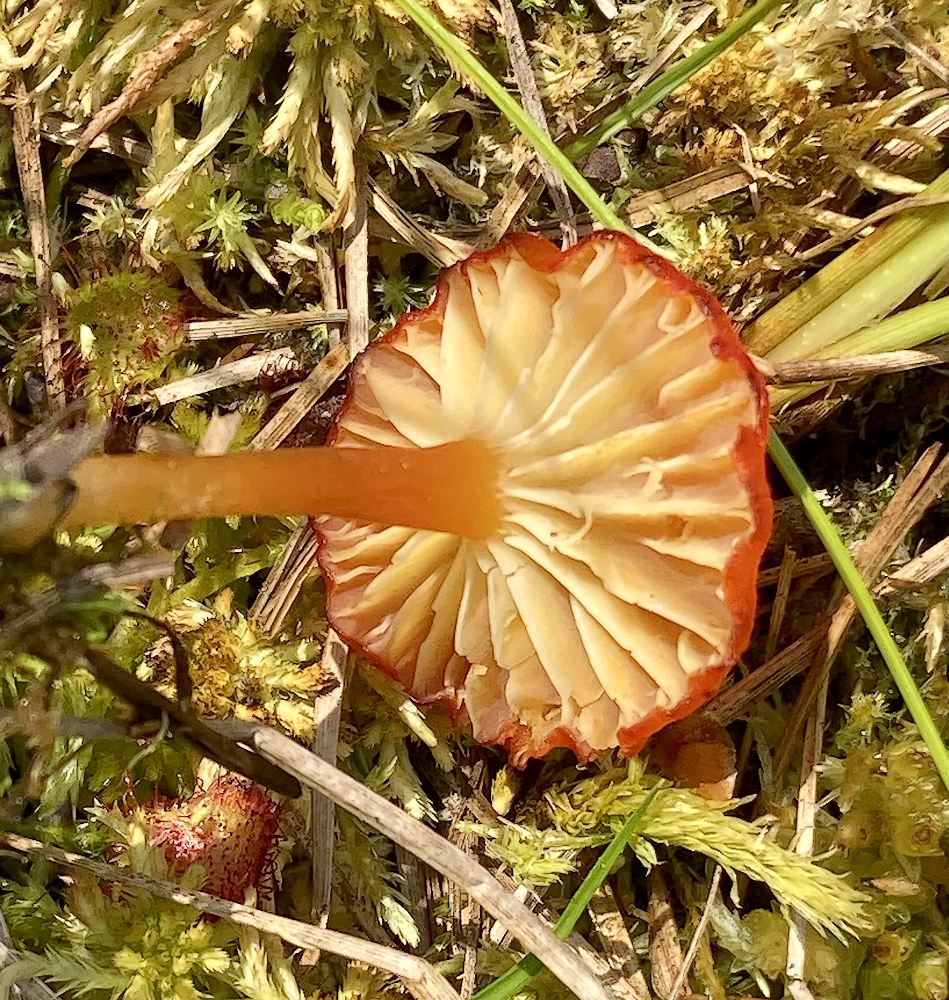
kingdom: Fungi
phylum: Basidiomycota
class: Agaricomycetes
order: Agaricales
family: Hygrophoraceae
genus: Hygrocybe
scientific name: Hygrocybe coccineocrenata
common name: tørvemos-vokshat
